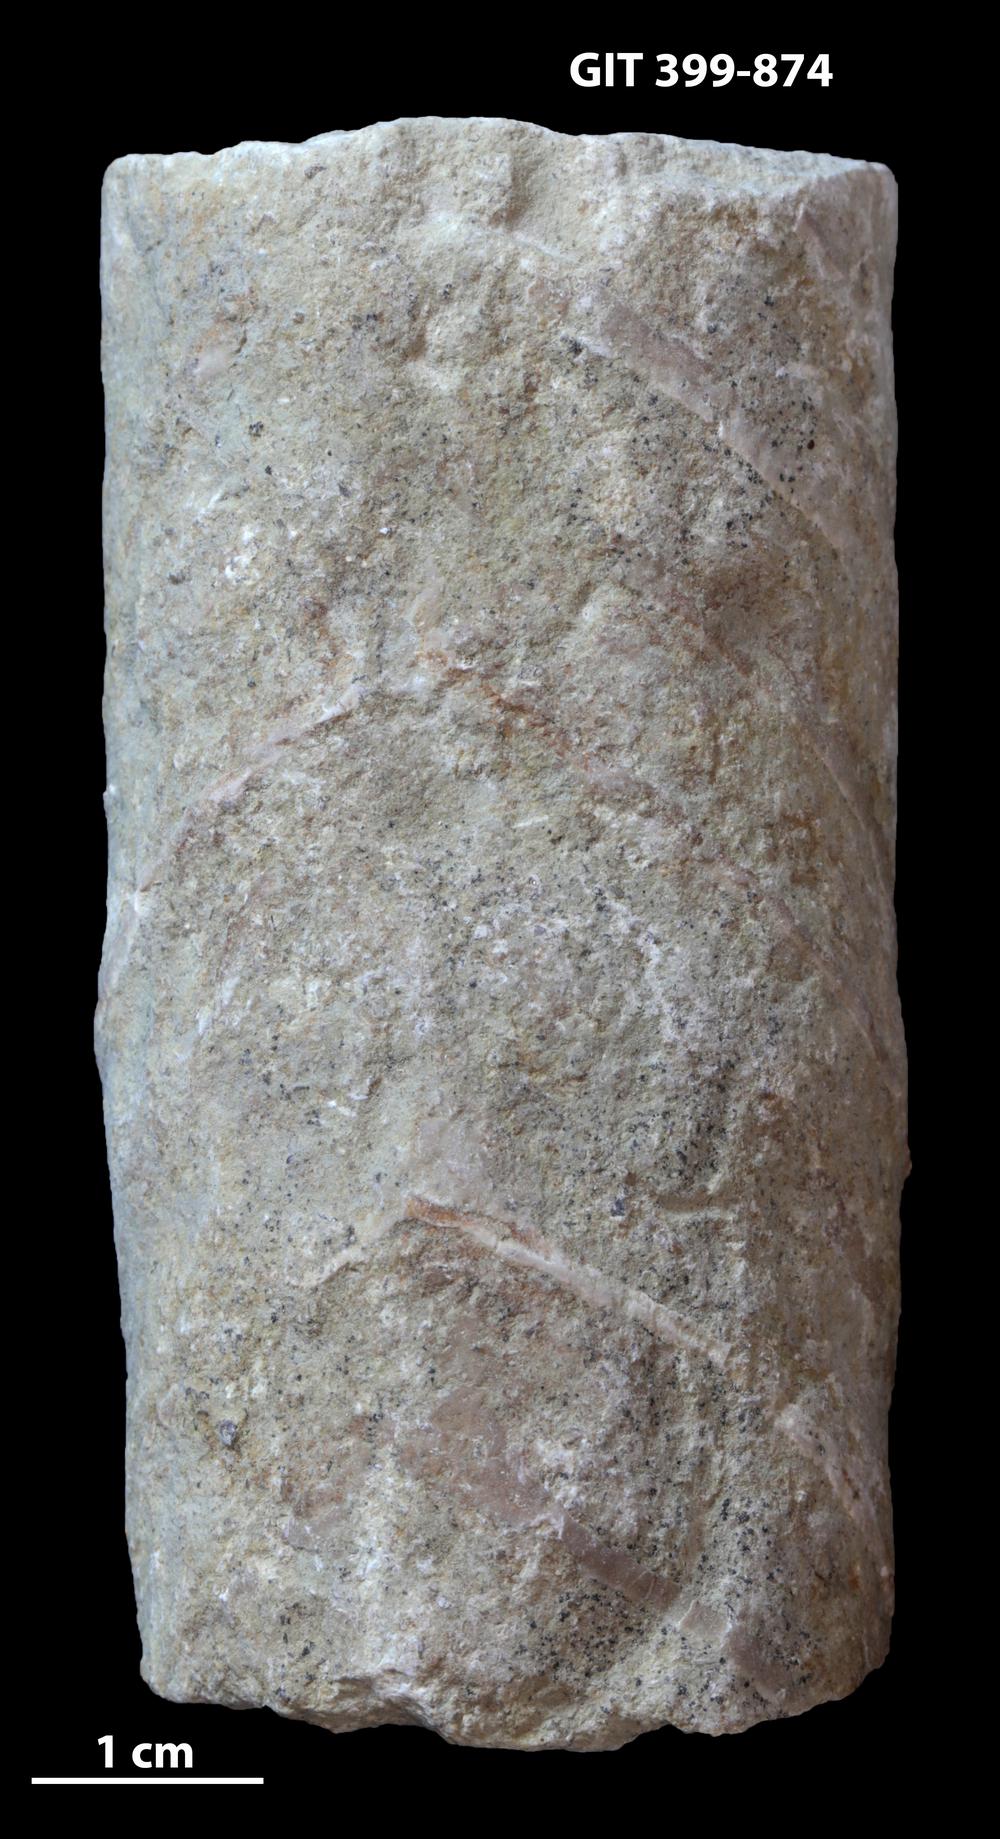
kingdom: Animalia
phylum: Mollusca
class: Cephalopoda
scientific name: Cephalopoda
